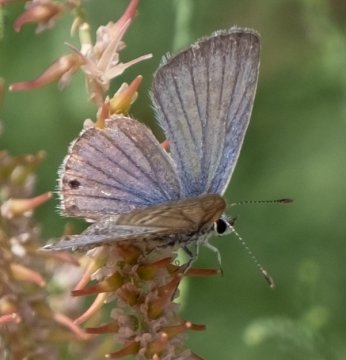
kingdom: Animalia
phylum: Arthropoda
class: Insecta
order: Lepidoptera
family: Lycaenidae
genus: Echinargus
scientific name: Echinargus isola
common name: Reakirt's Blue
